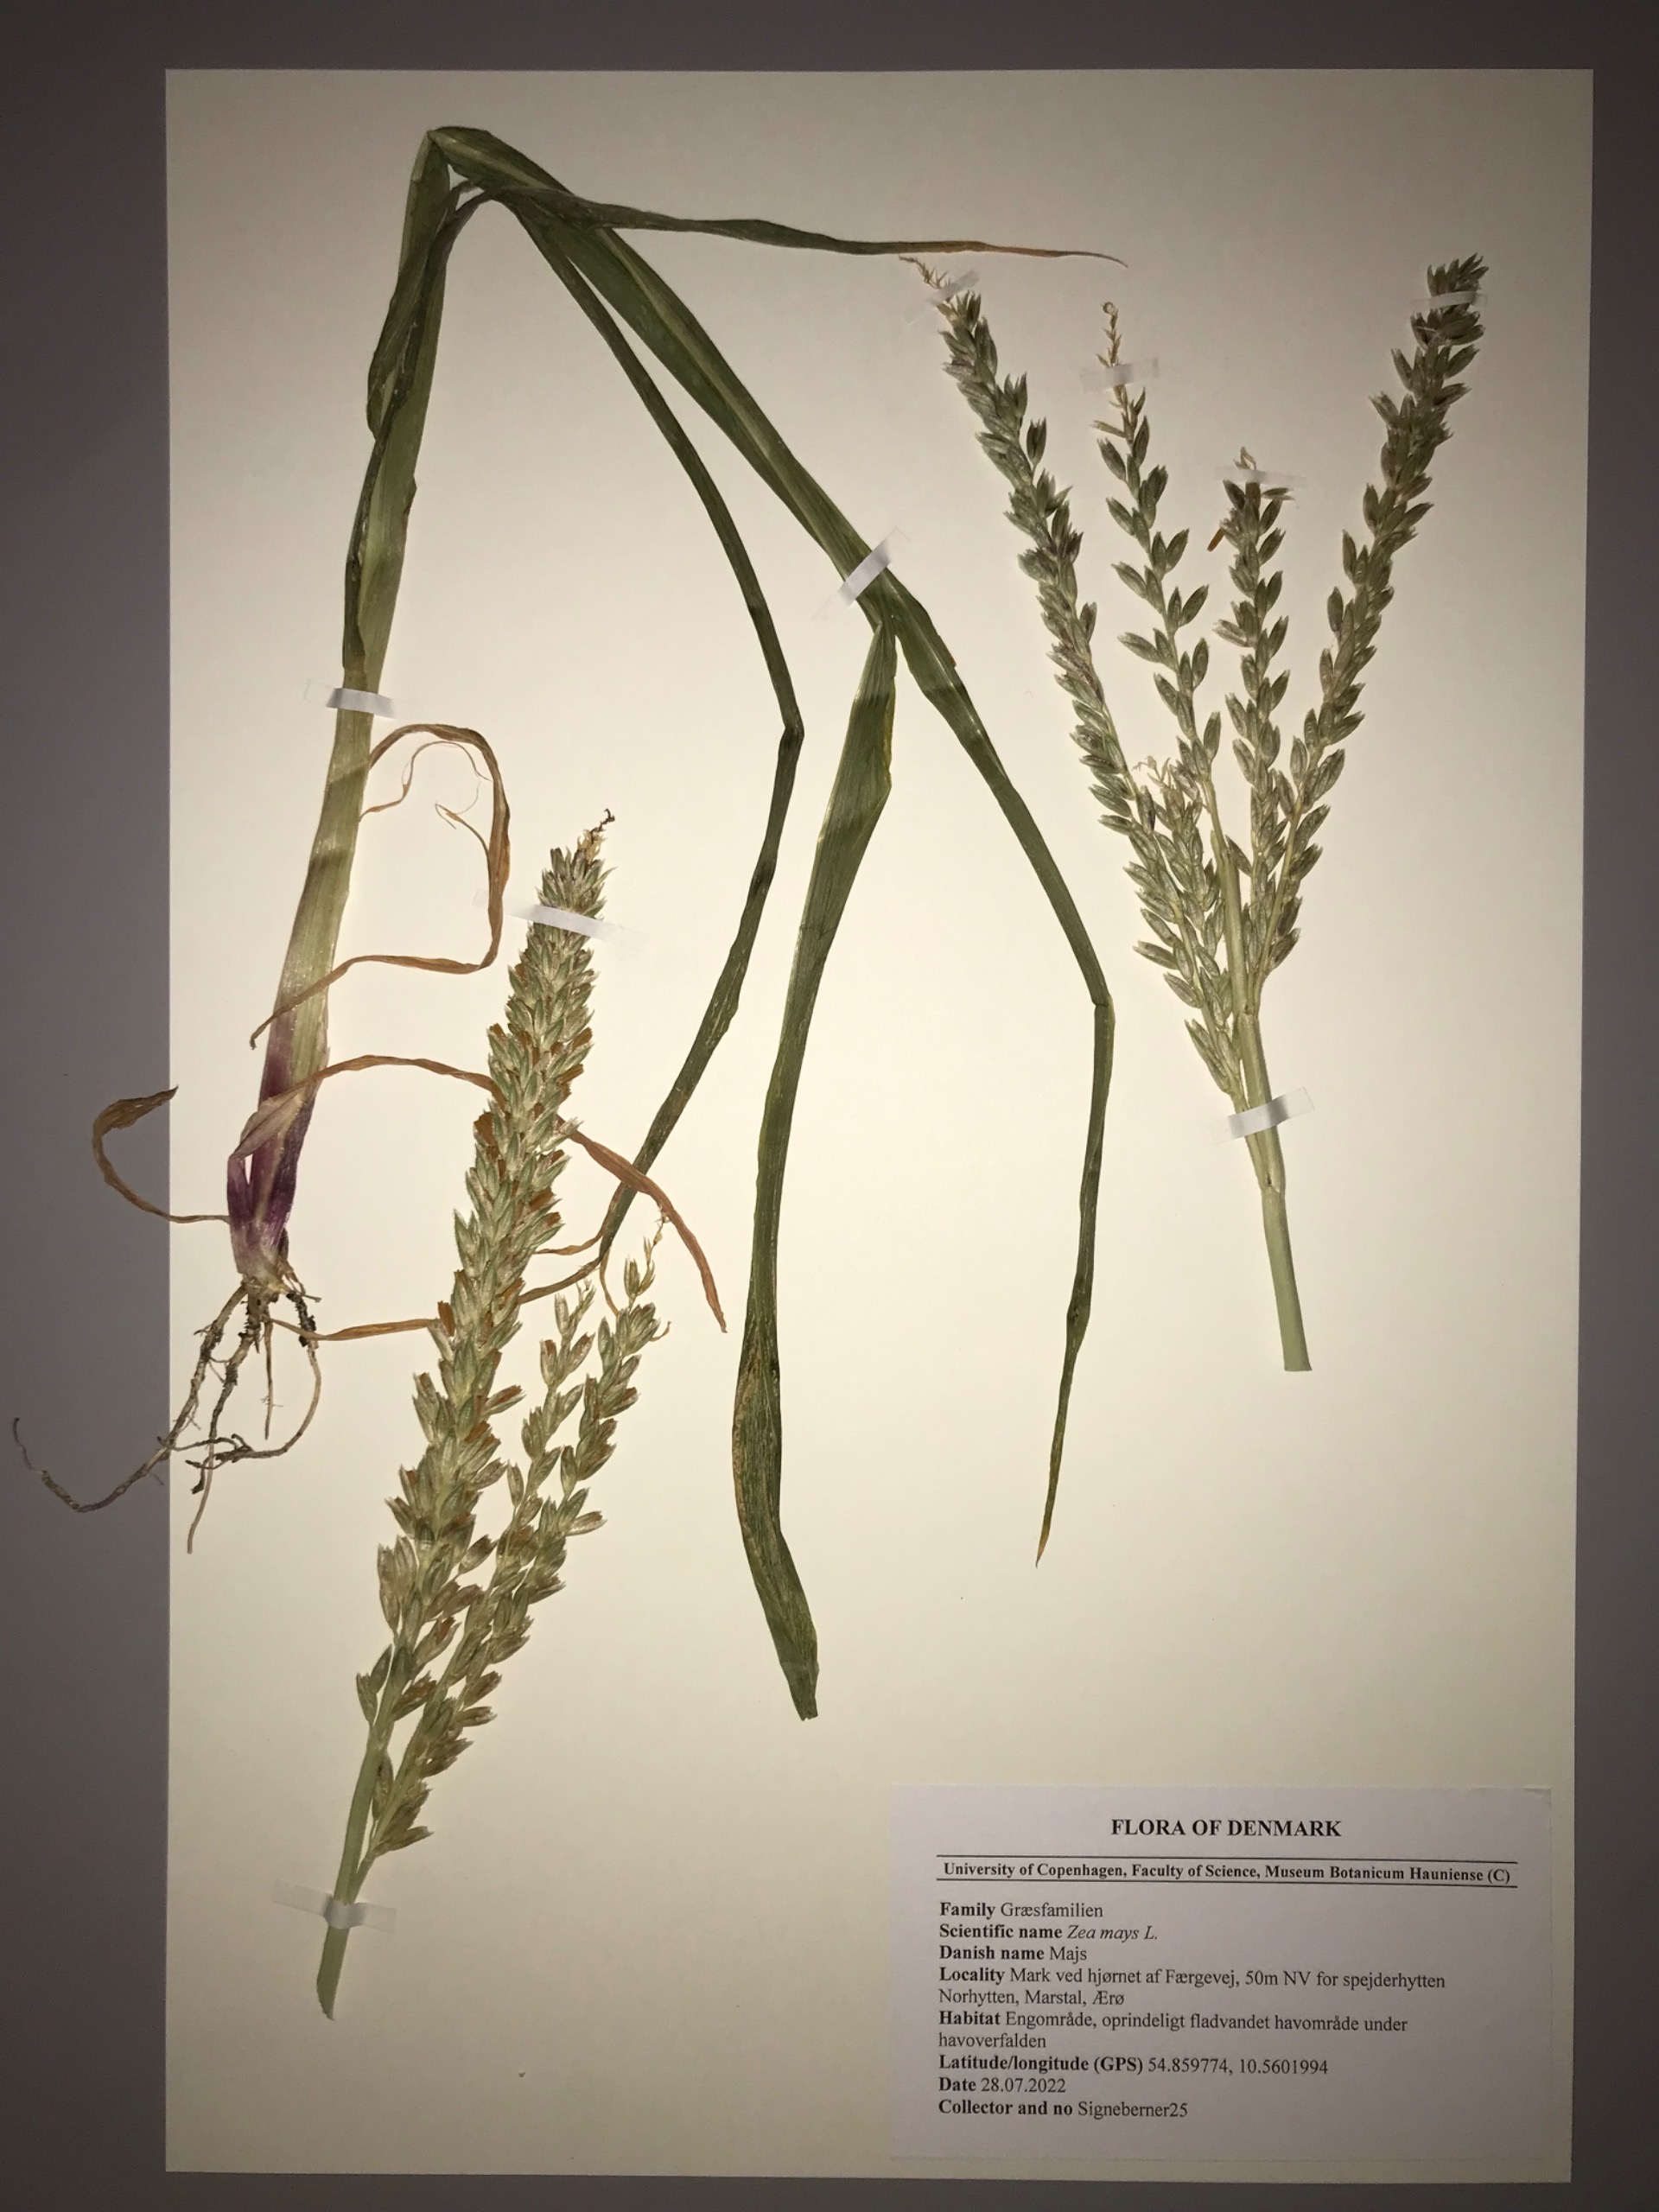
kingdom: Plantae
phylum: Tracheophyta
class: Liliopsida
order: Poales
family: Poaceae
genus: Zea
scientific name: Zea mays
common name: Majs
